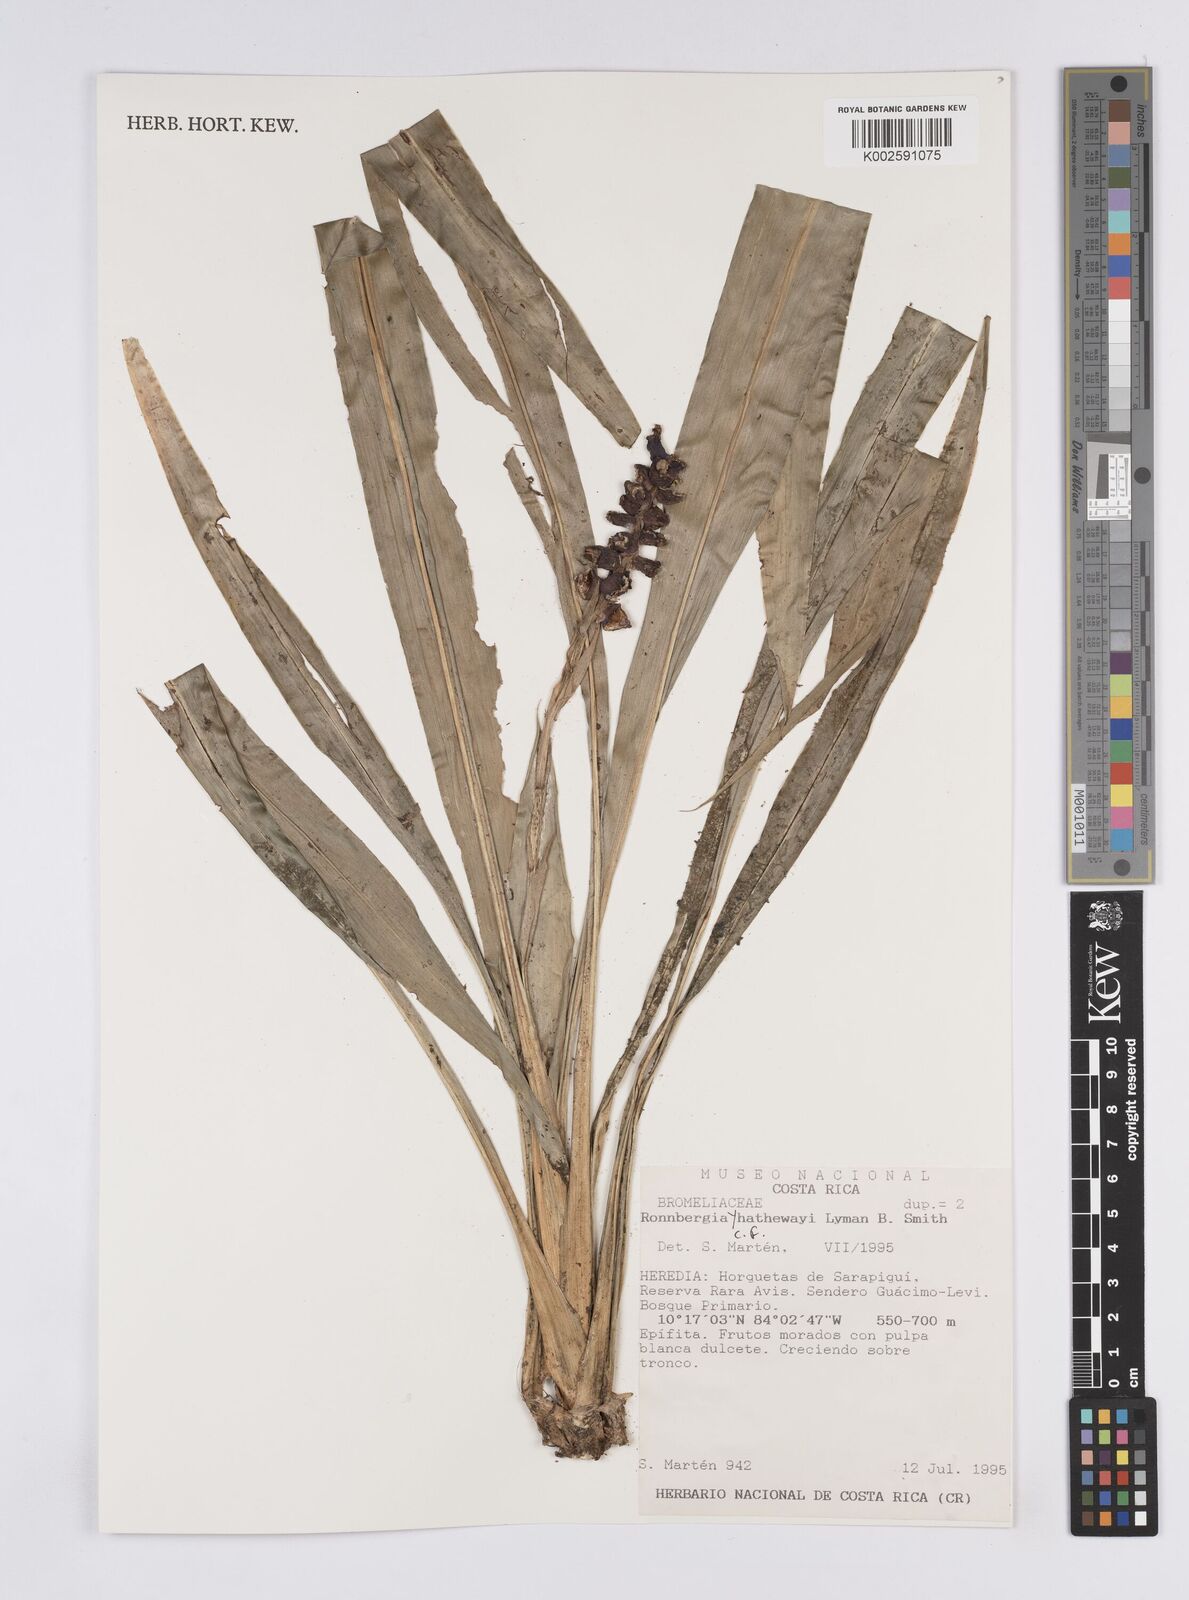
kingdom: Plantae
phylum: Tracheophyta
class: Liliopsida
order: Poales
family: Bromeliaceae
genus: Ronnbergia
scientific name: Ronnbergia hathewayi
